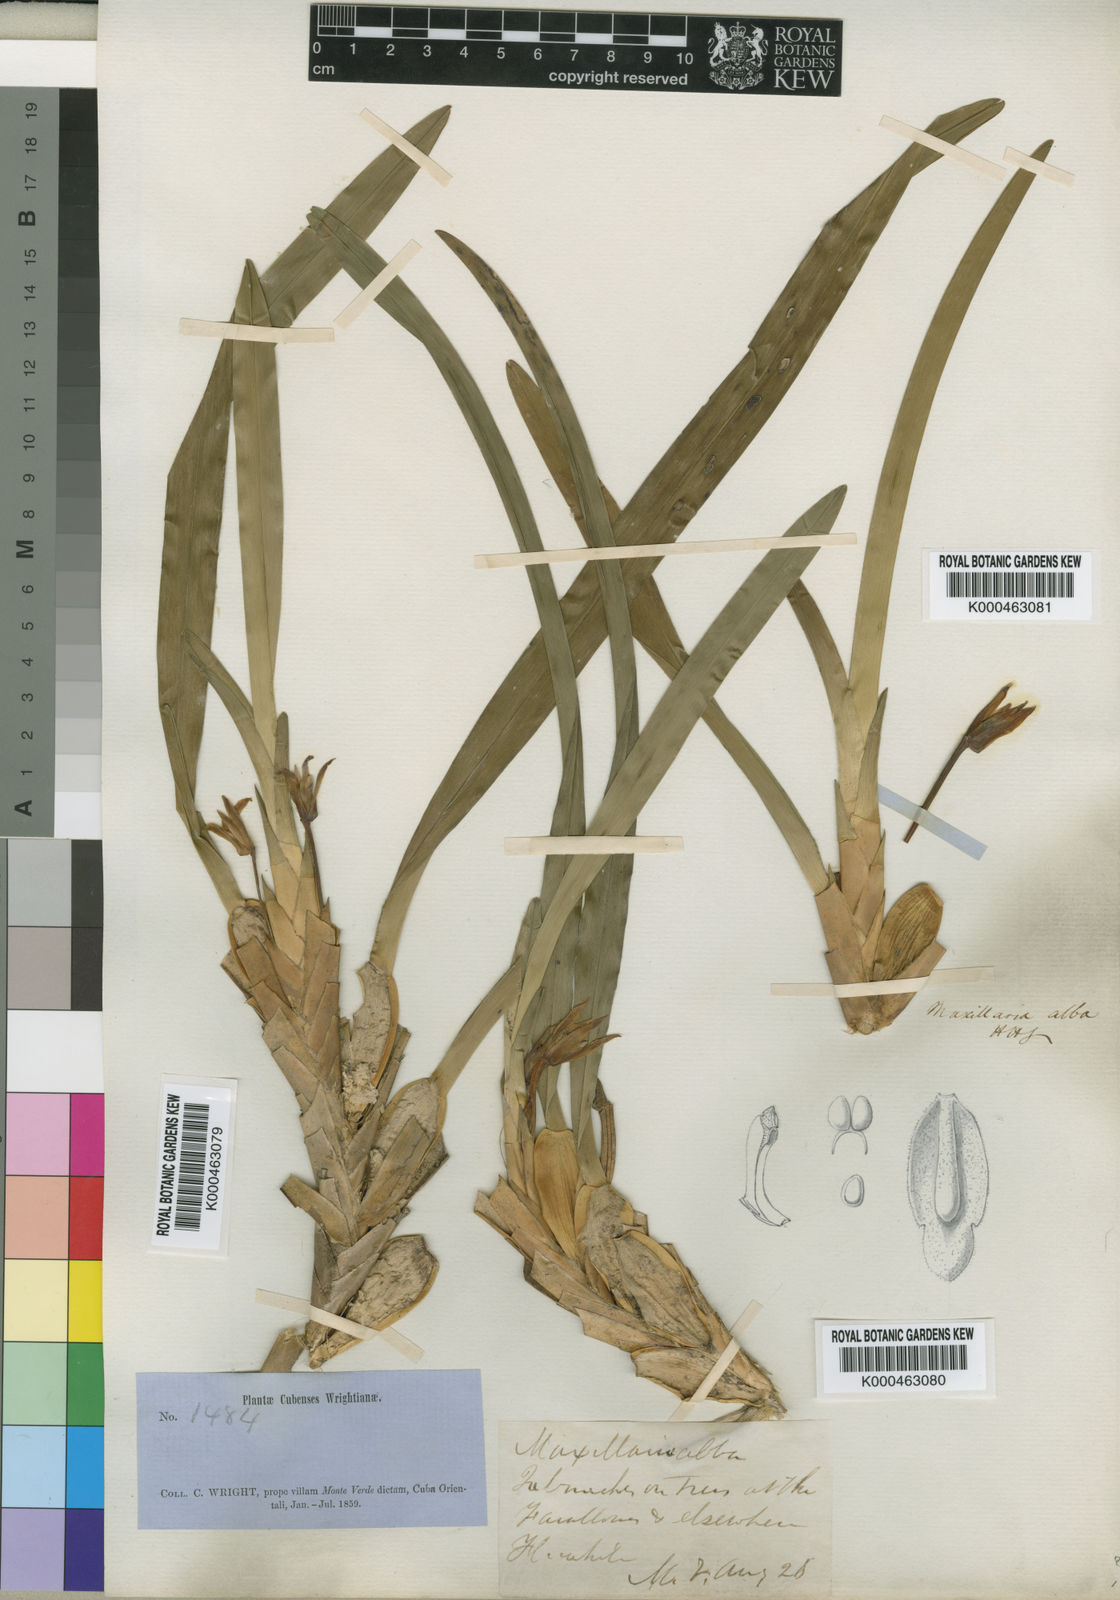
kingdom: Plantae
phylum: Tracheophyta
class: Liliopsida
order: Asparagales
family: Orchidaceae
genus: Maxillaria
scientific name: Maxillaria alba
